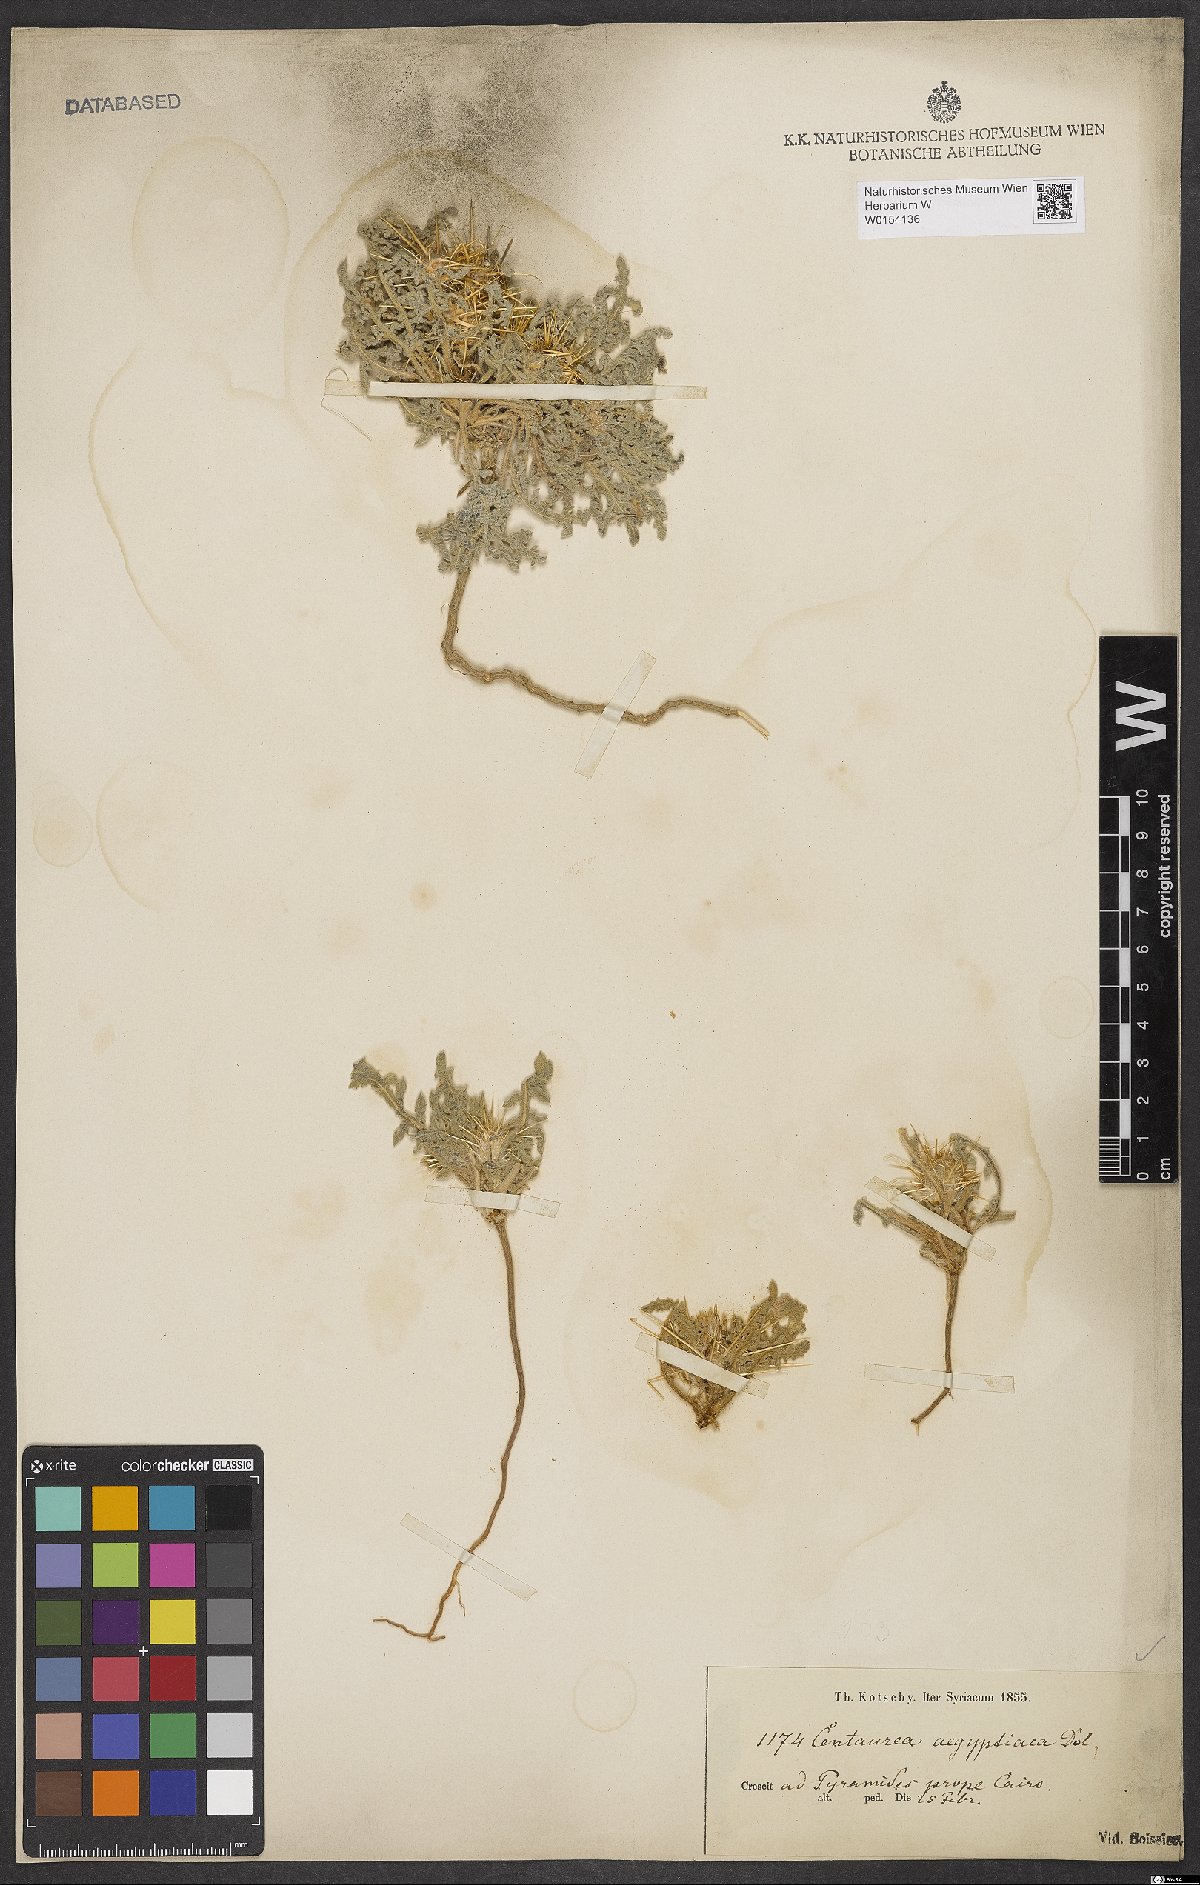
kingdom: Plantae
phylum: Tracheophyta
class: Magnoliopsida
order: Asterales
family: Asteraceae
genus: Centaurea
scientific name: Centaurea aegyptiaca
